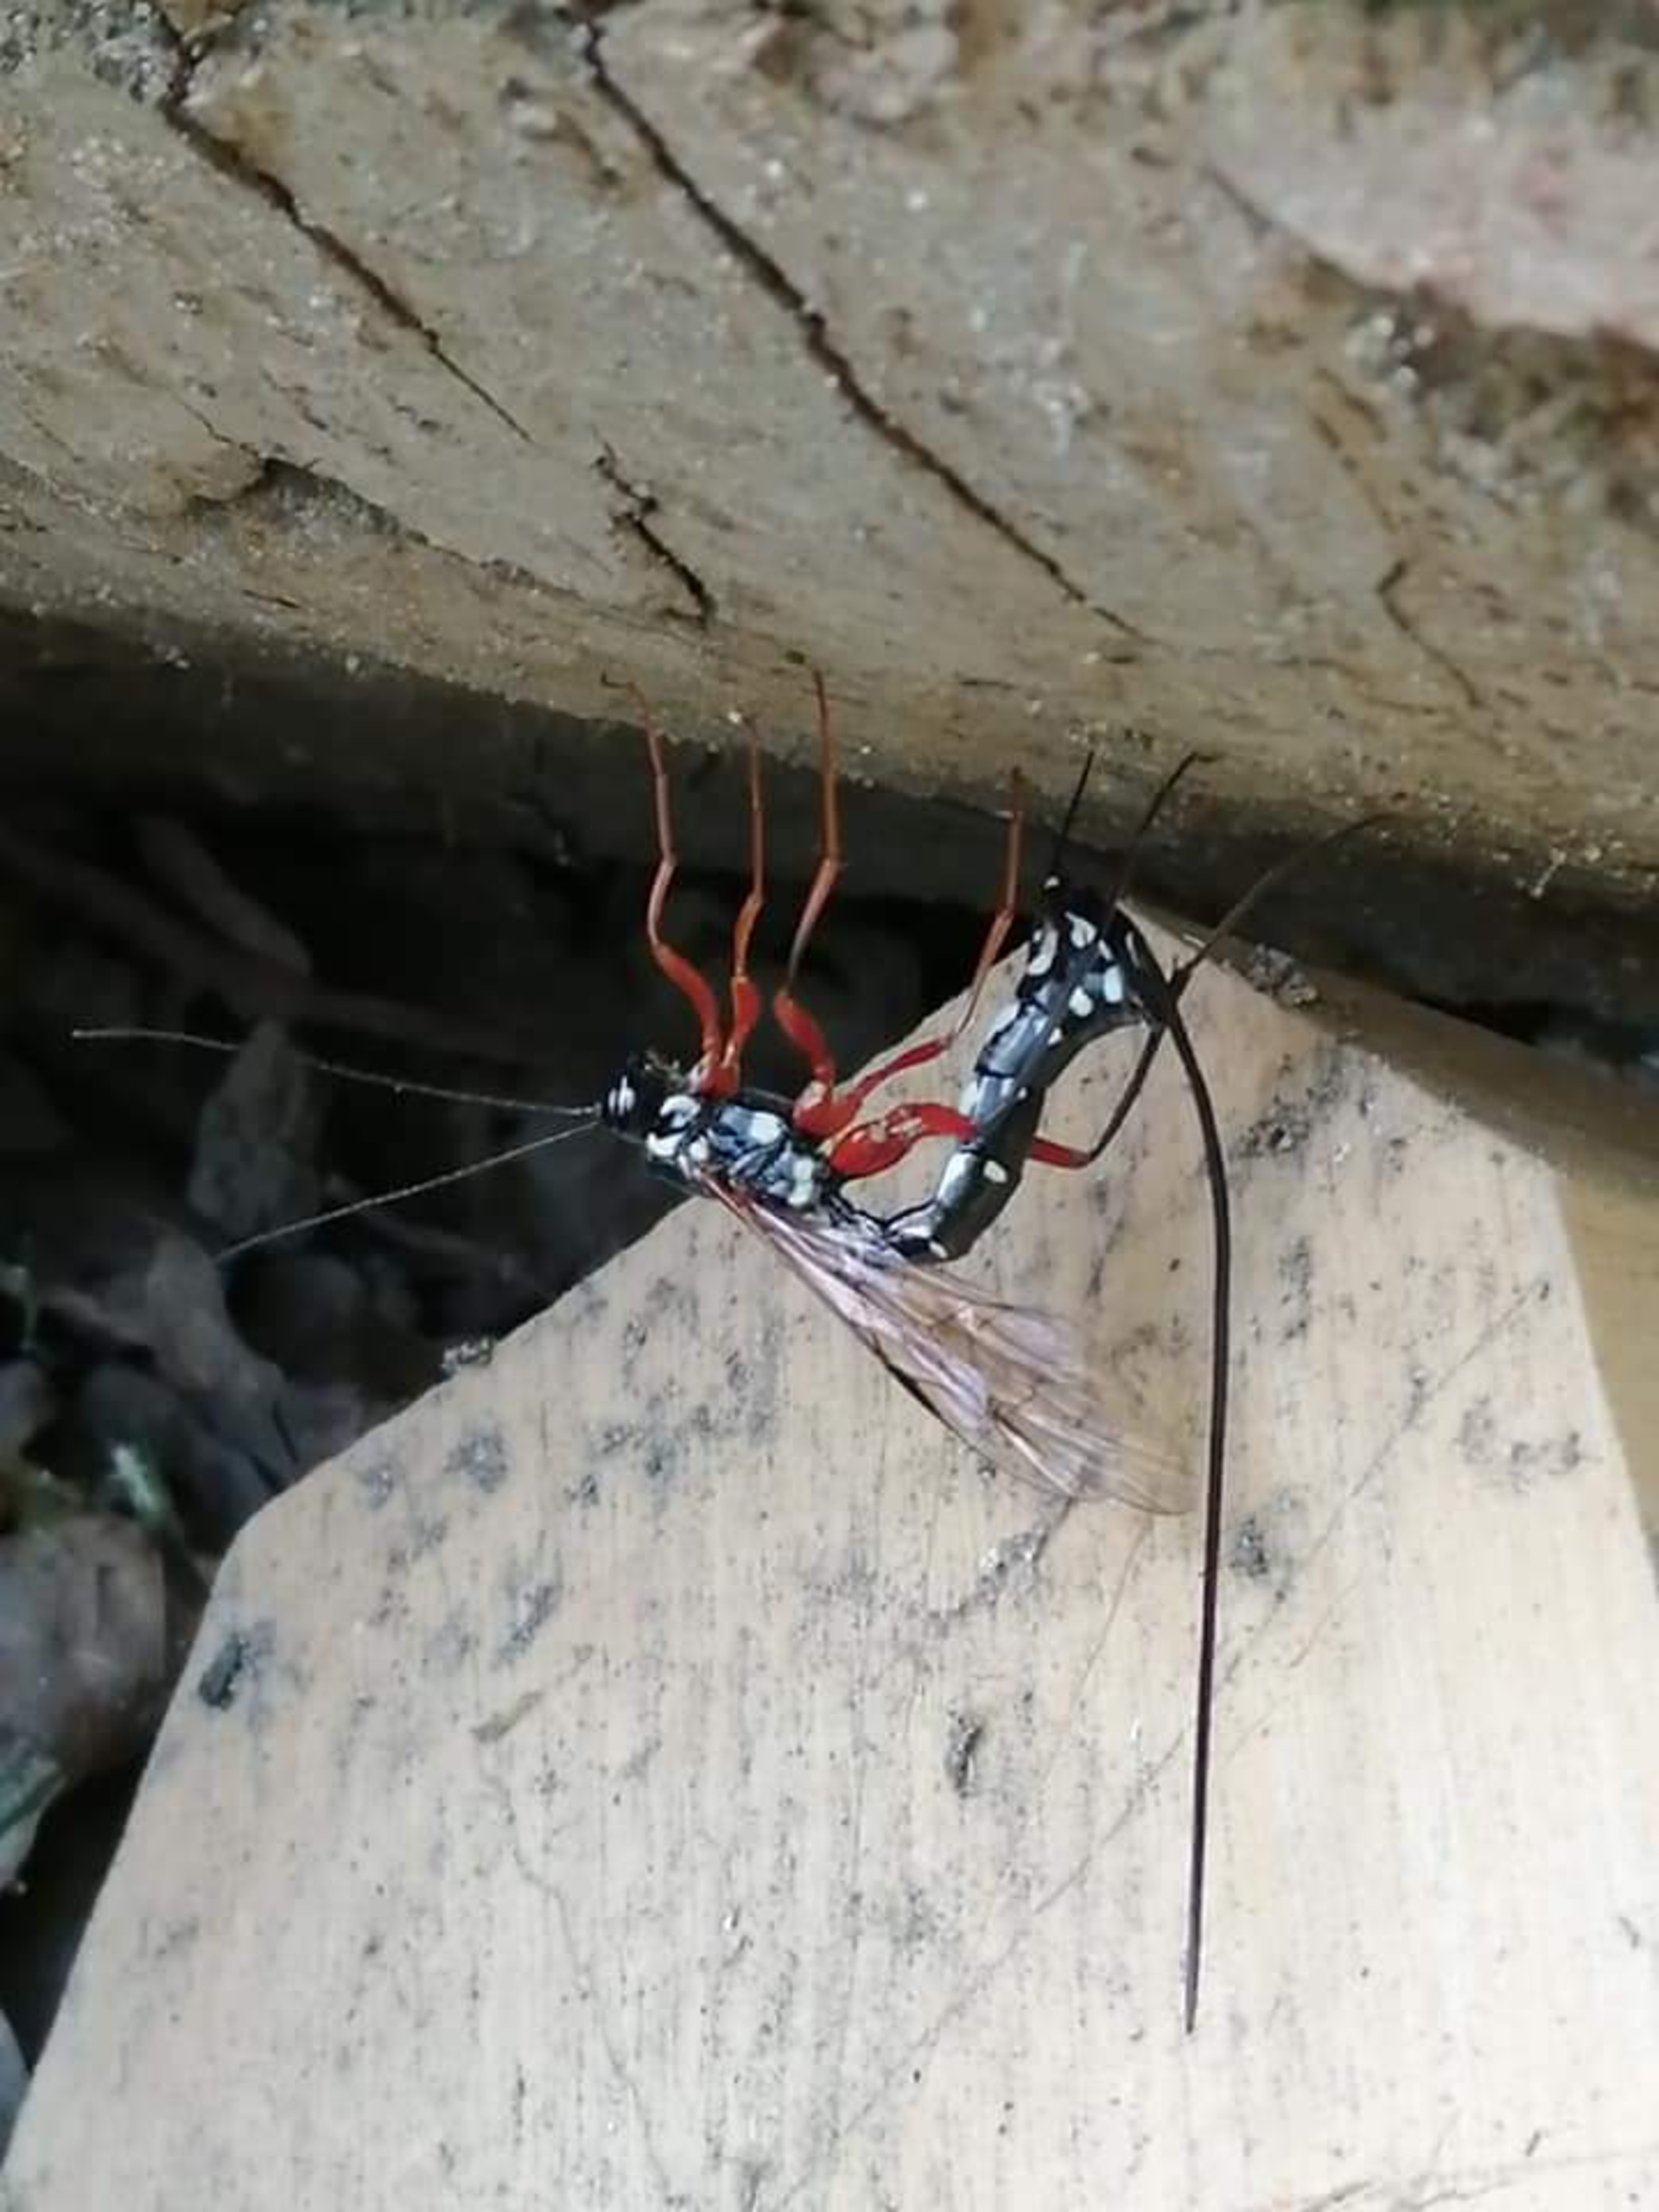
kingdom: Animalia
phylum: Arthropoda
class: Insecta
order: Hymenoptera
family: Ichneumonidae
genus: Rhyssa
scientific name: Rhyssa persuasoria
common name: Sabelhveps
